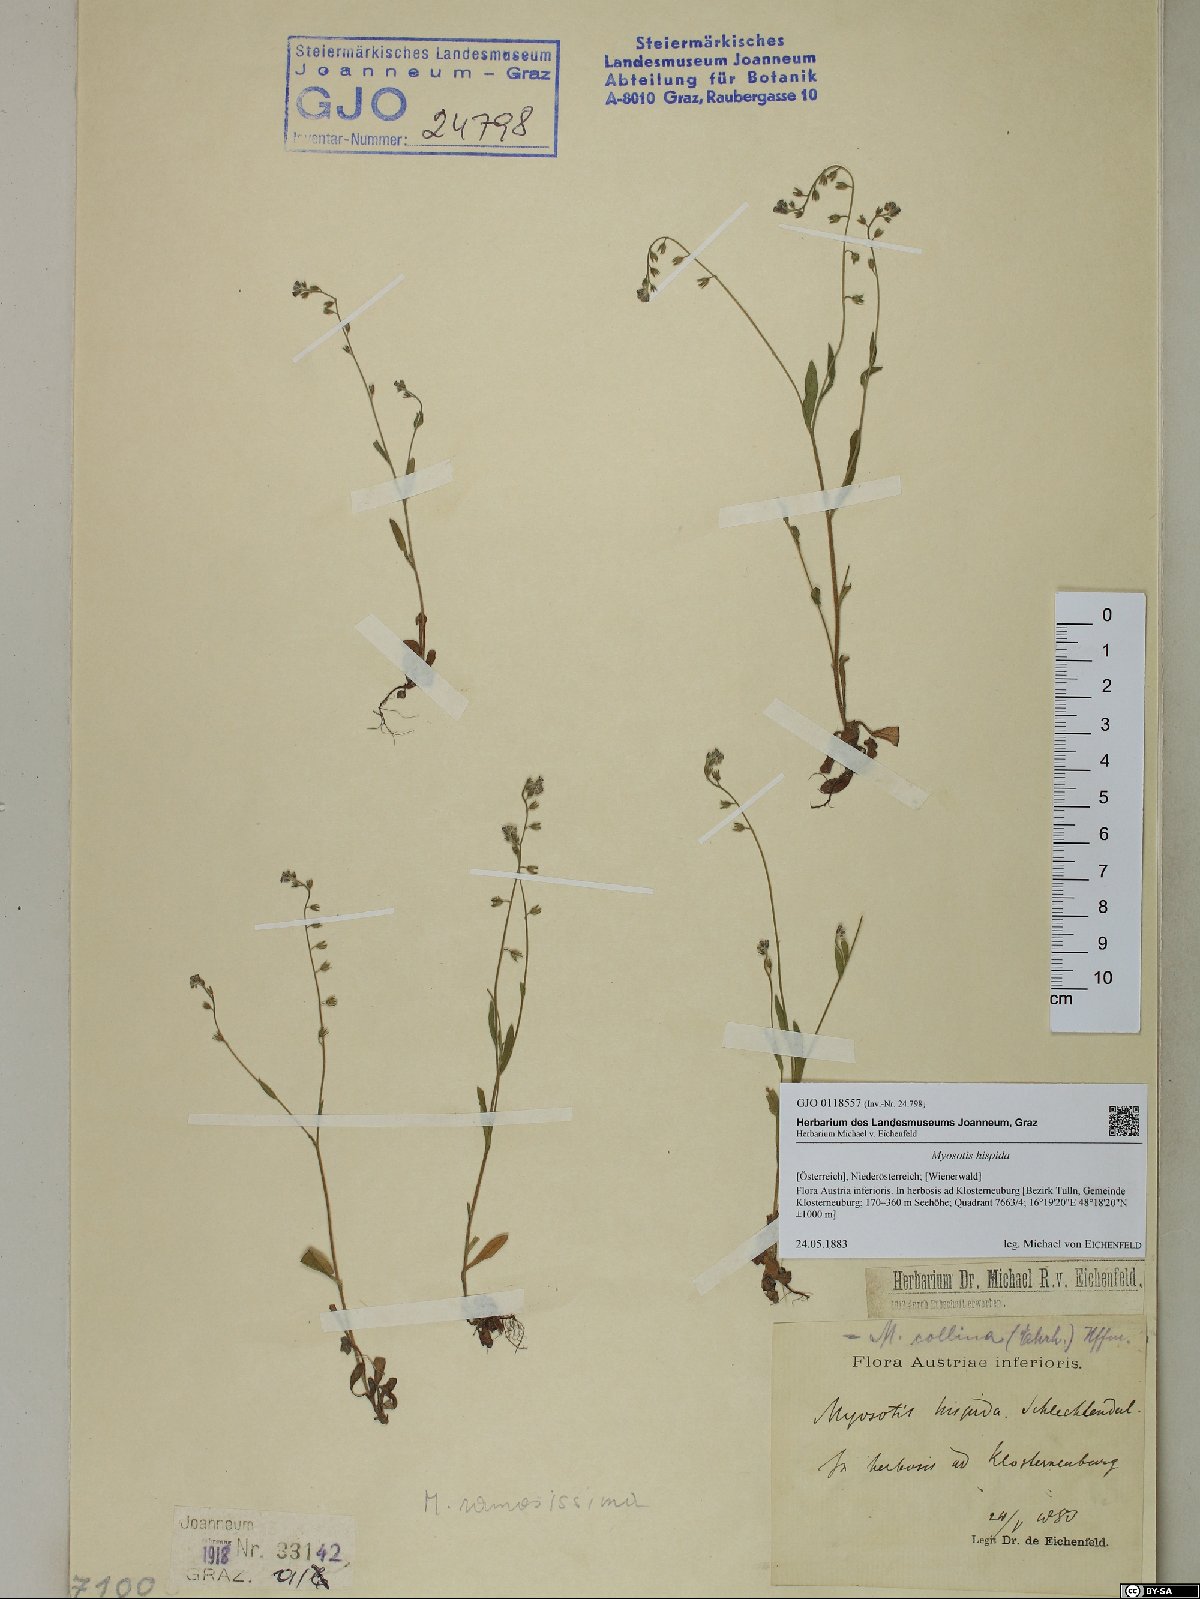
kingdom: Plantae
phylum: Tracheophyta
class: Magnoliopsida
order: Boraginales
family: Boraginaceae
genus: Myosotis
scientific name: Myosotis ramosissima
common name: Early forget-me-not
